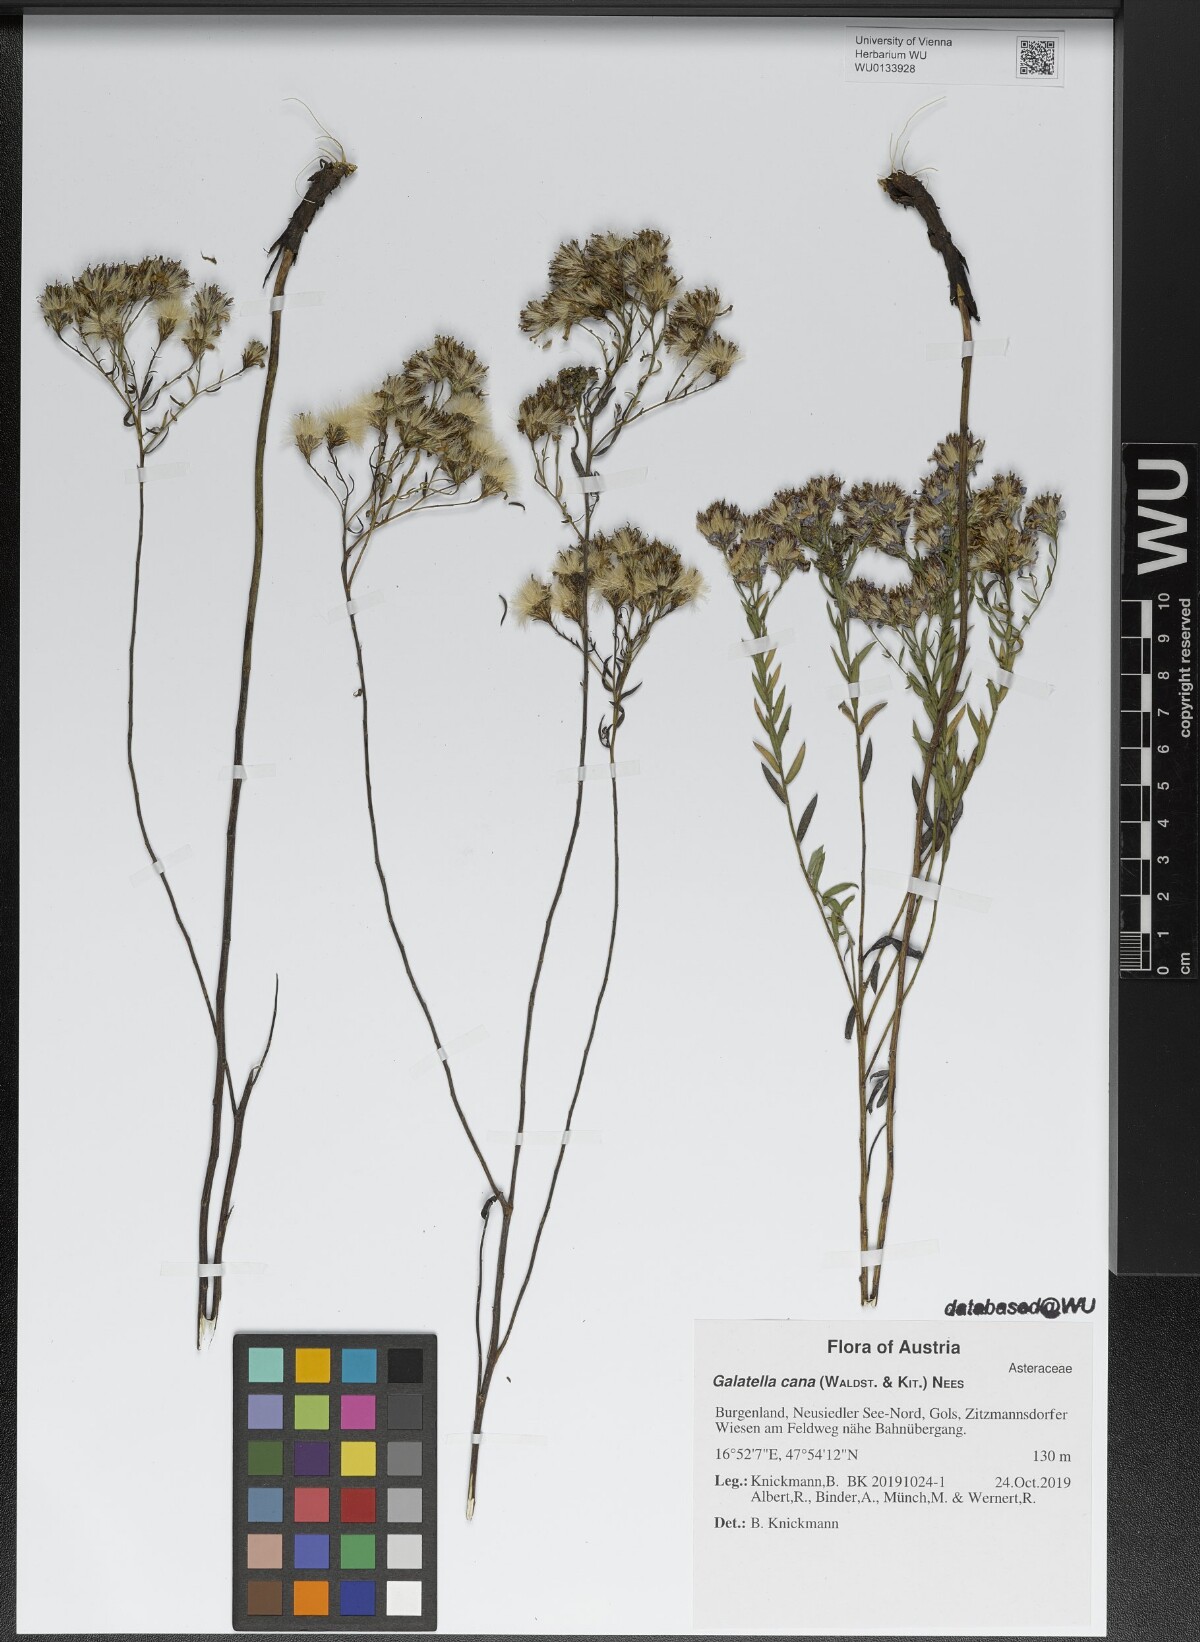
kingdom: Plantae
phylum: Tracheophyta
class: Magnoliopsida
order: Asterales
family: Asteraceae
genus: Galatella
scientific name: Galatella cana
